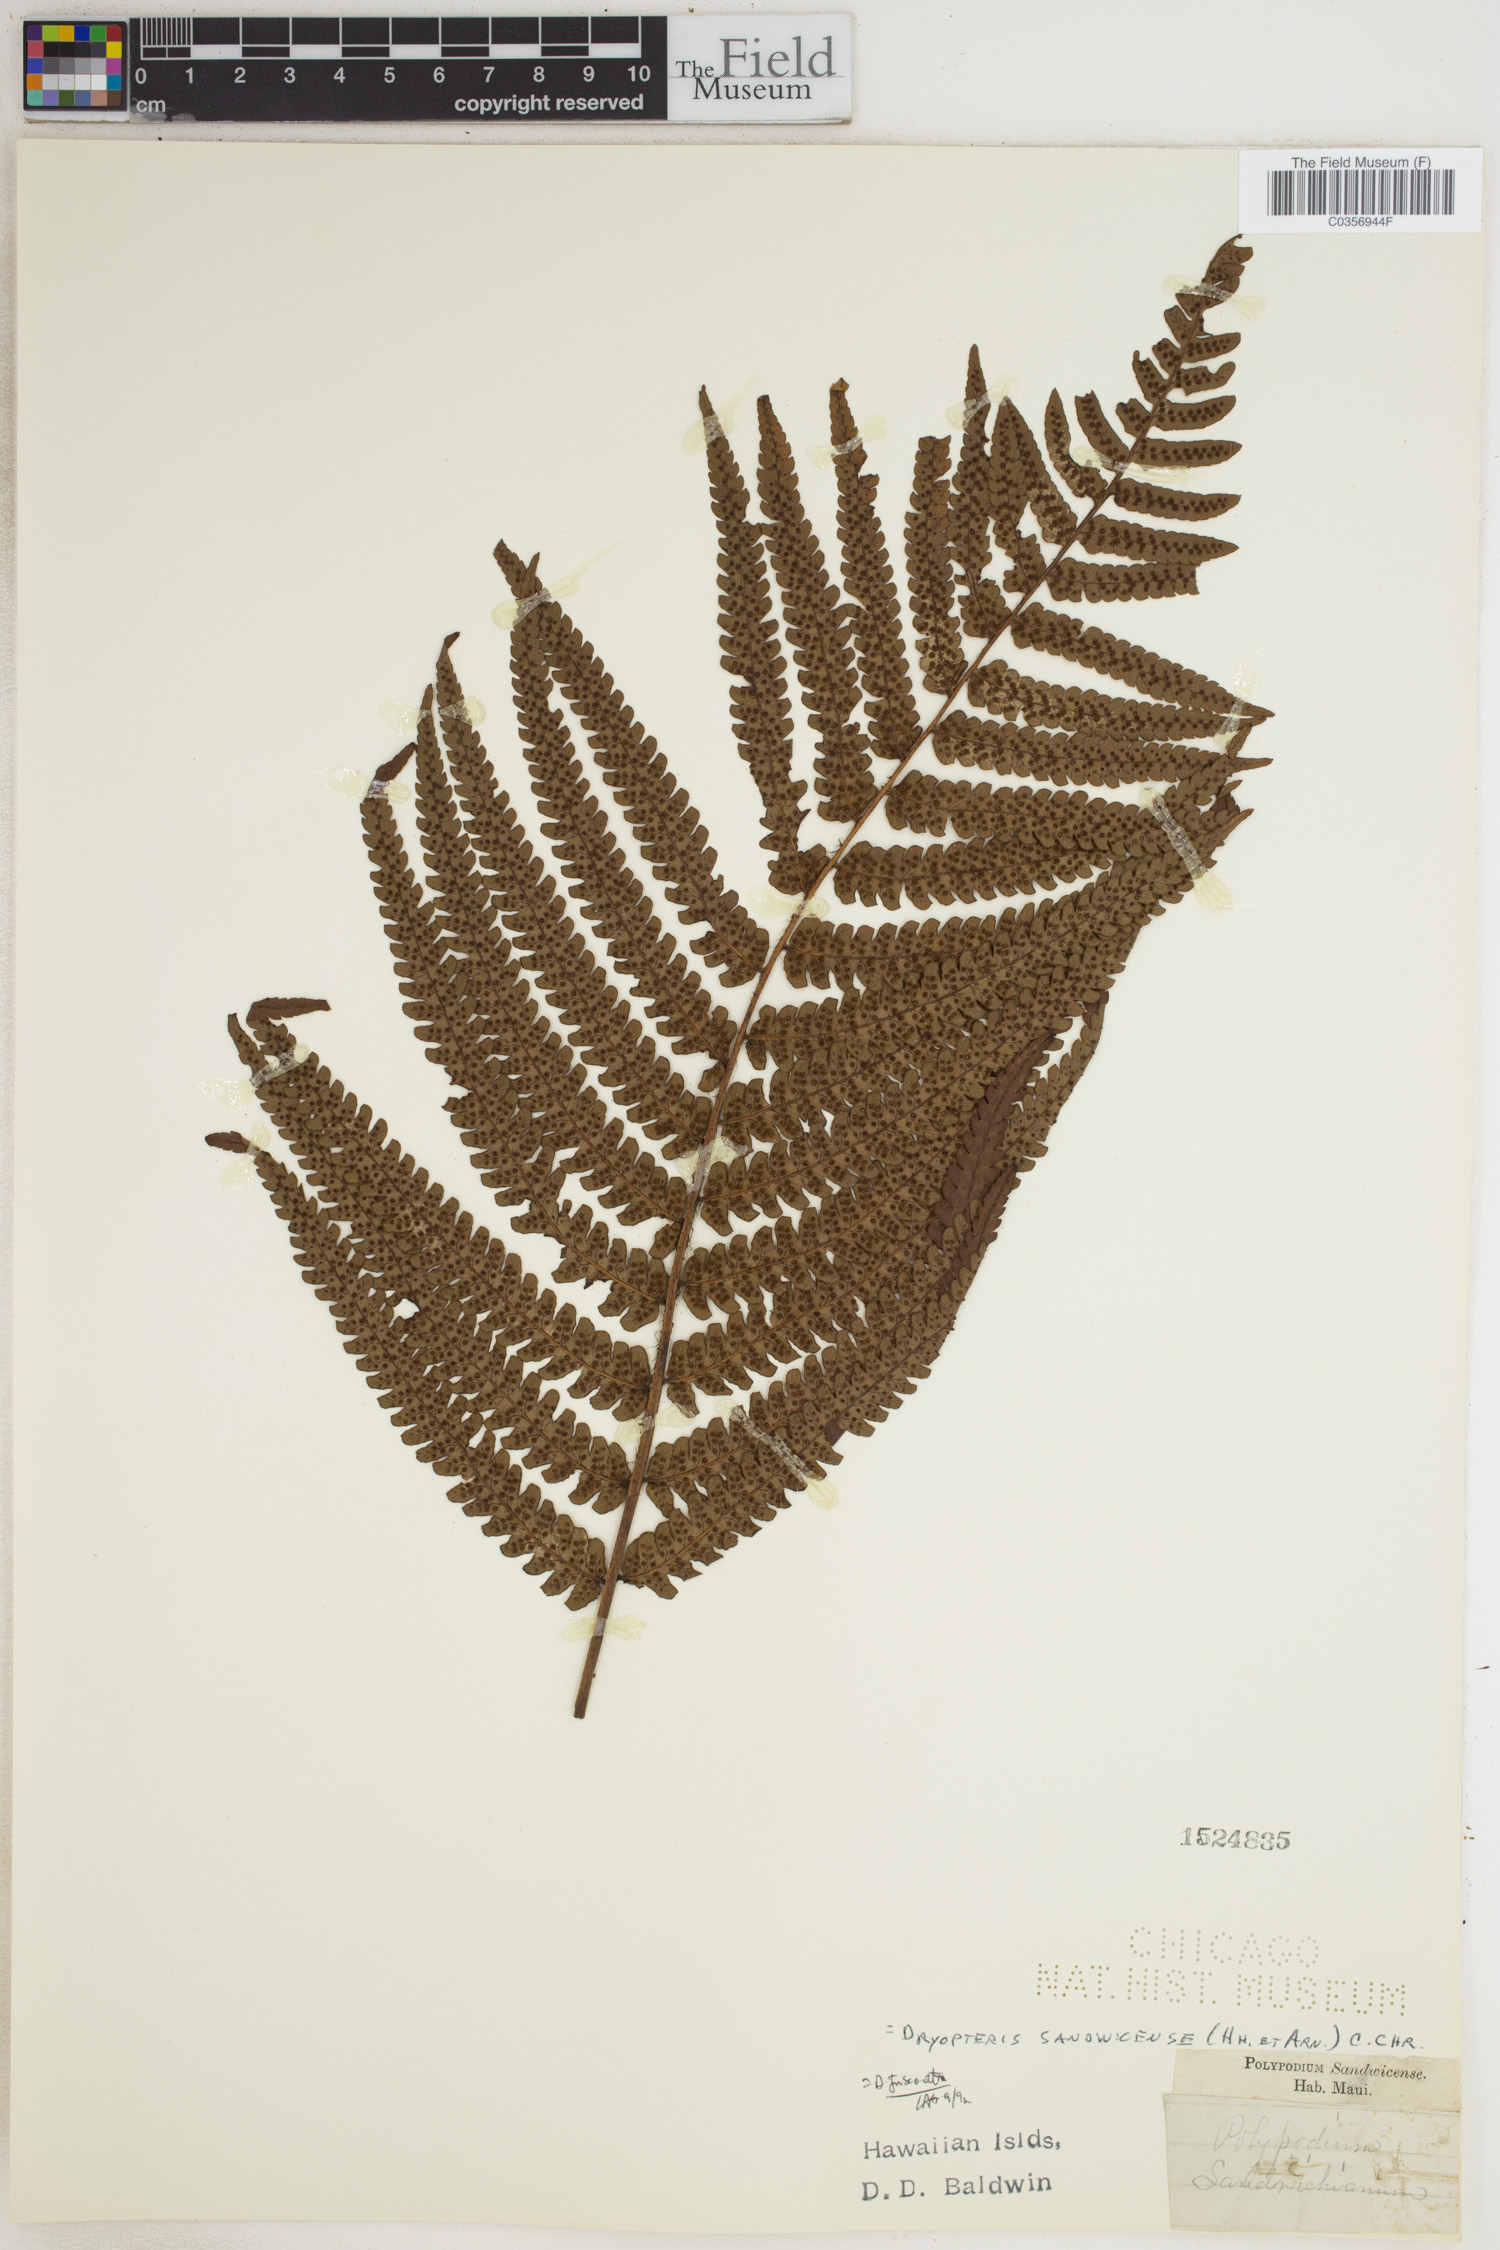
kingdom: Plantae
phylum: Tracheophyta
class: Polypodiopsida
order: Polypodiales
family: Dryopteridaceae
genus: Dryopteris
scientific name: Dryopteris sandwicensis
